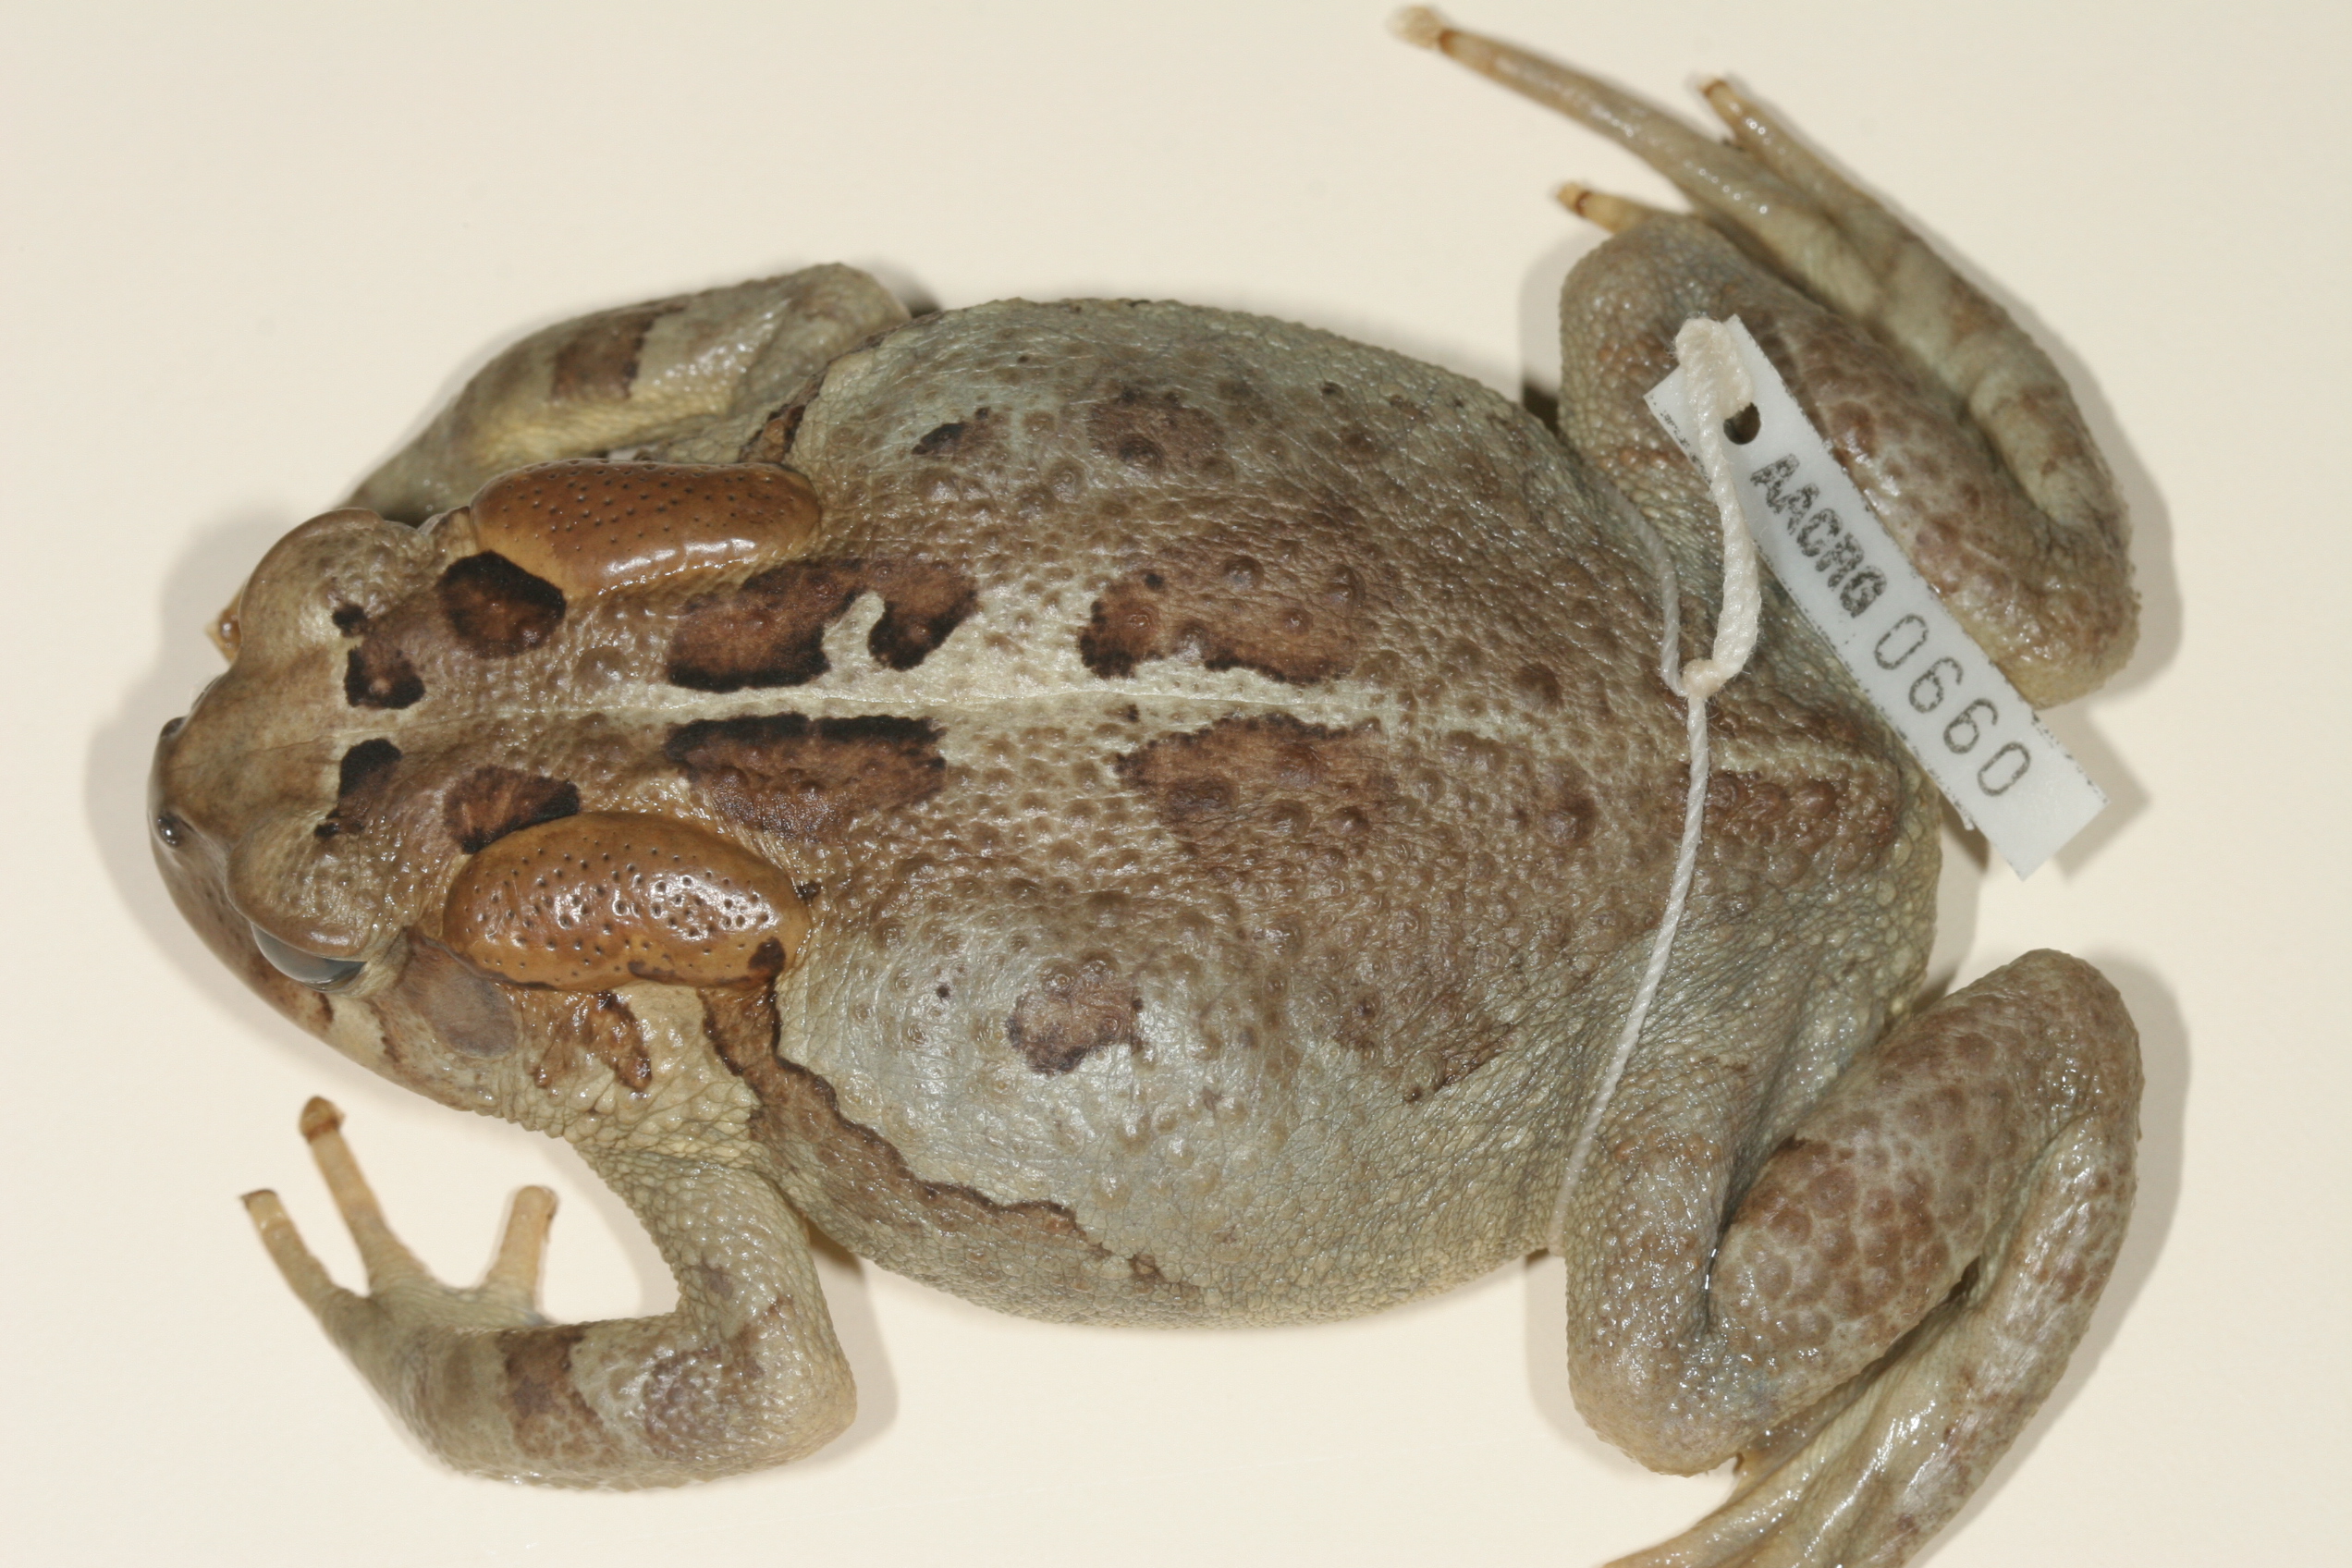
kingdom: Animalia
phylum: Chordata
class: Amphibia
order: Anura
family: Bufonidae
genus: Sclerophrys
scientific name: Sclerophrys pardalis
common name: Eastern leopard toad
